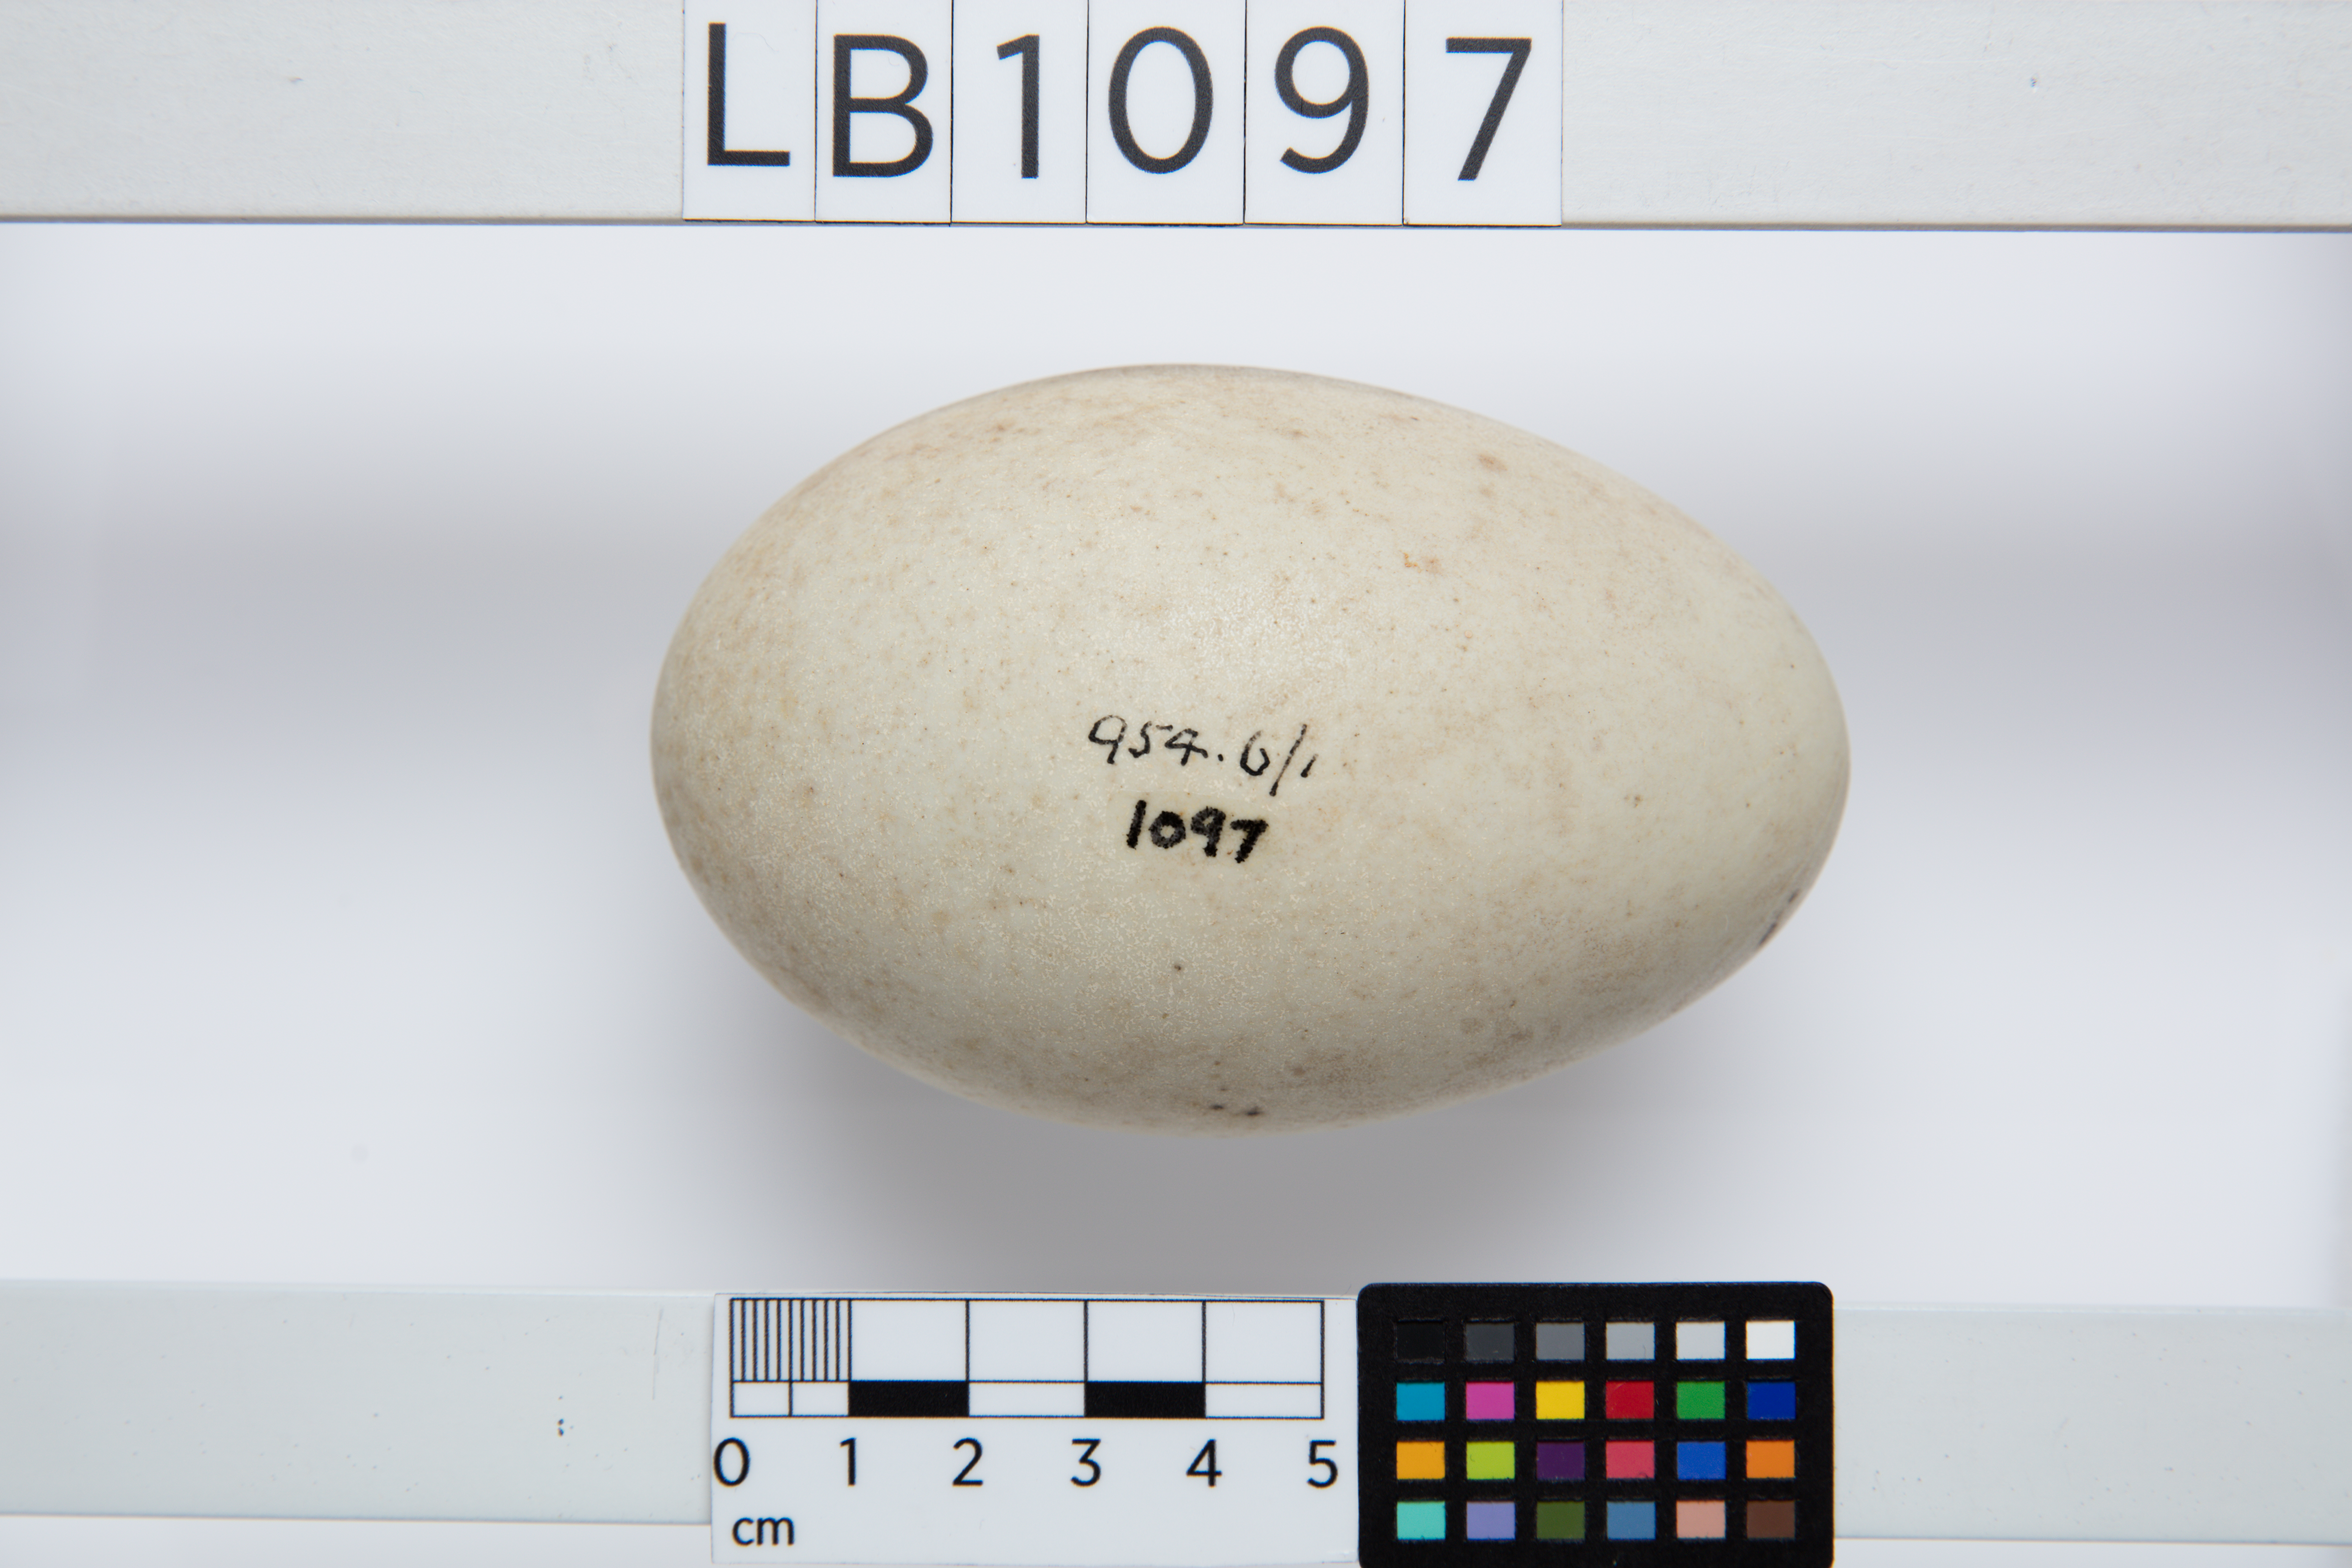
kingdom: Animalia
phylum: Chordata
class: Aves
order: Anseriformes
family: Anatidae
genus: Cygnus
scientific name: Cygnus atratus
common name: Black swan
